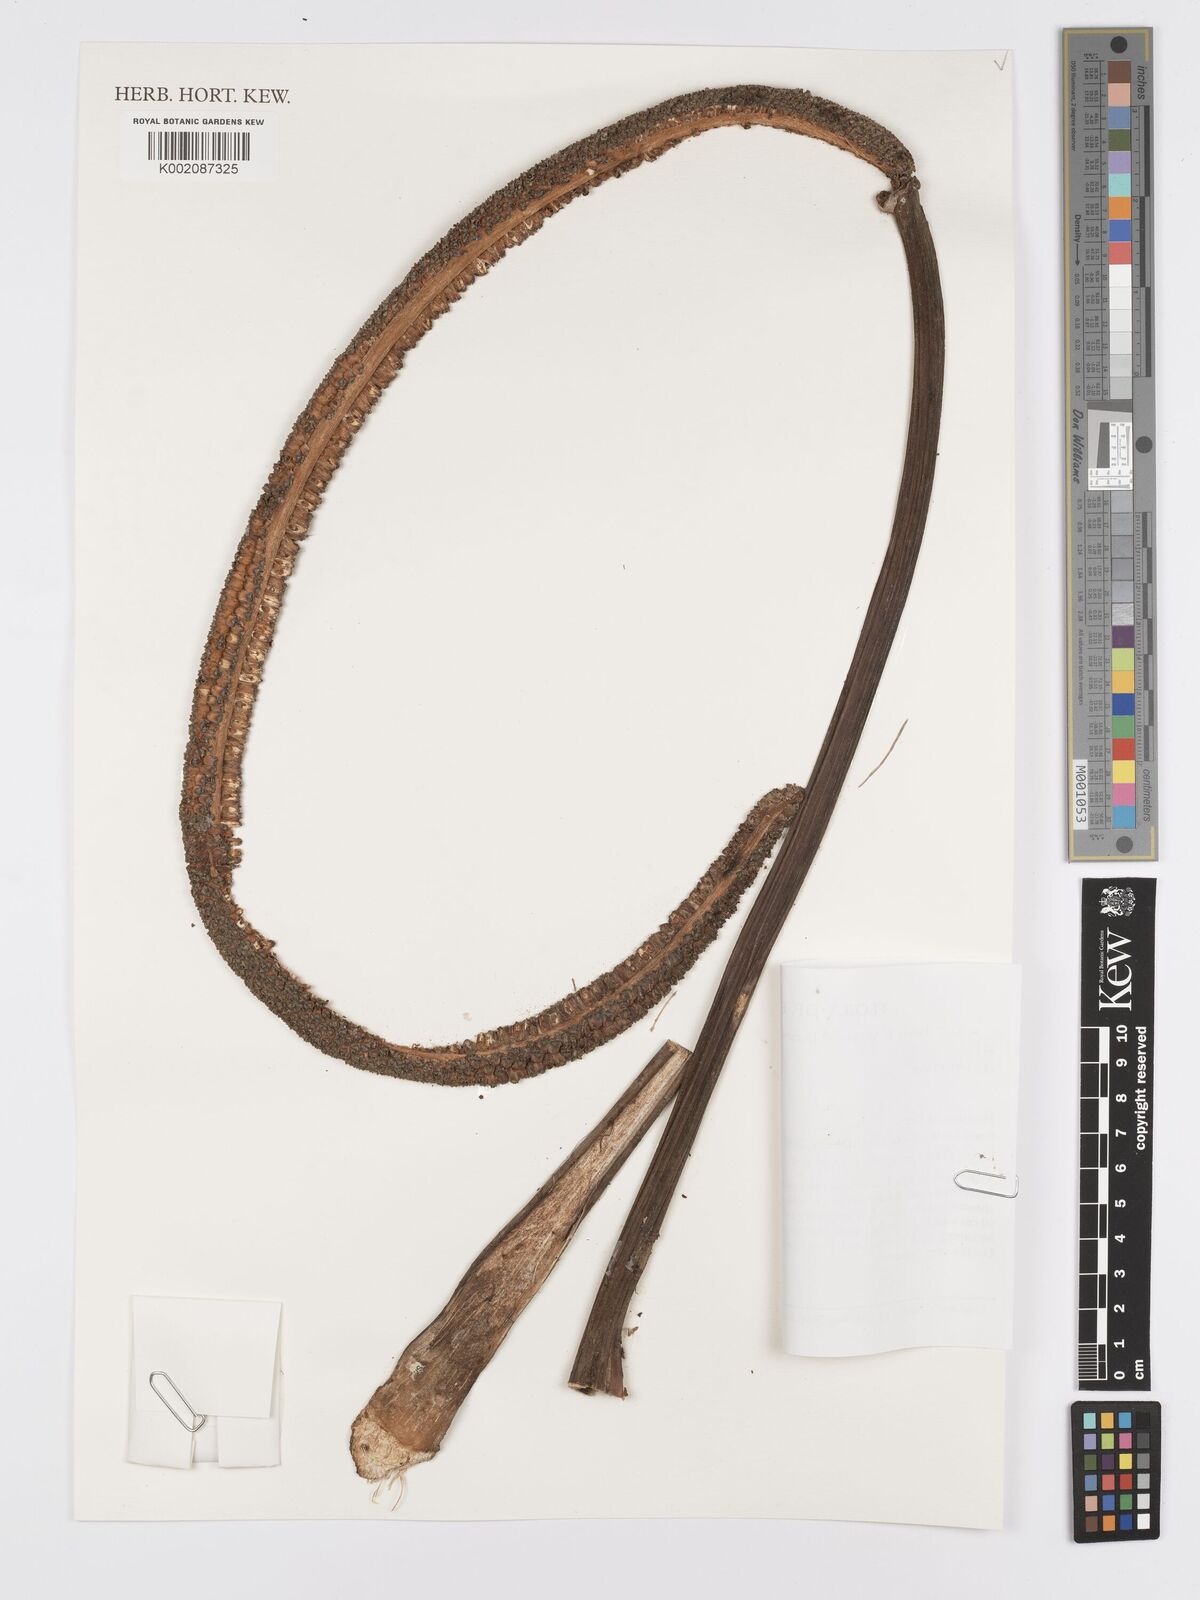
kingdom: Plantae
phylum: Tracheophyta
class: Liliopsida
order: Alismatales
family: Araceae
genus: Anthurium
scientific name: Anthurium
